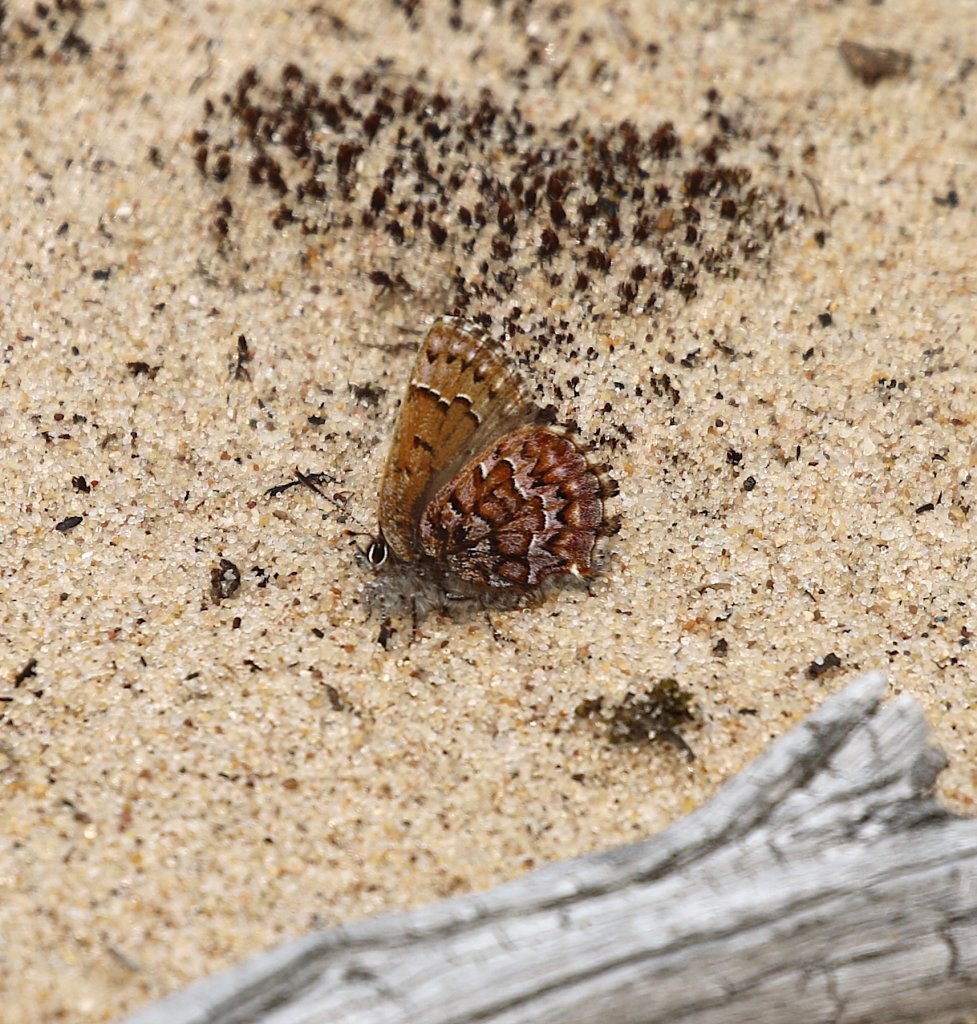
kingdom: Animalia
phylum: Arthropoda
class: Insecta
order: Lepidoptera
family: Lycaenidae
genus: Incisalia
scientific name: Incisalia niphon
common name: Eastern Pine Elfin
